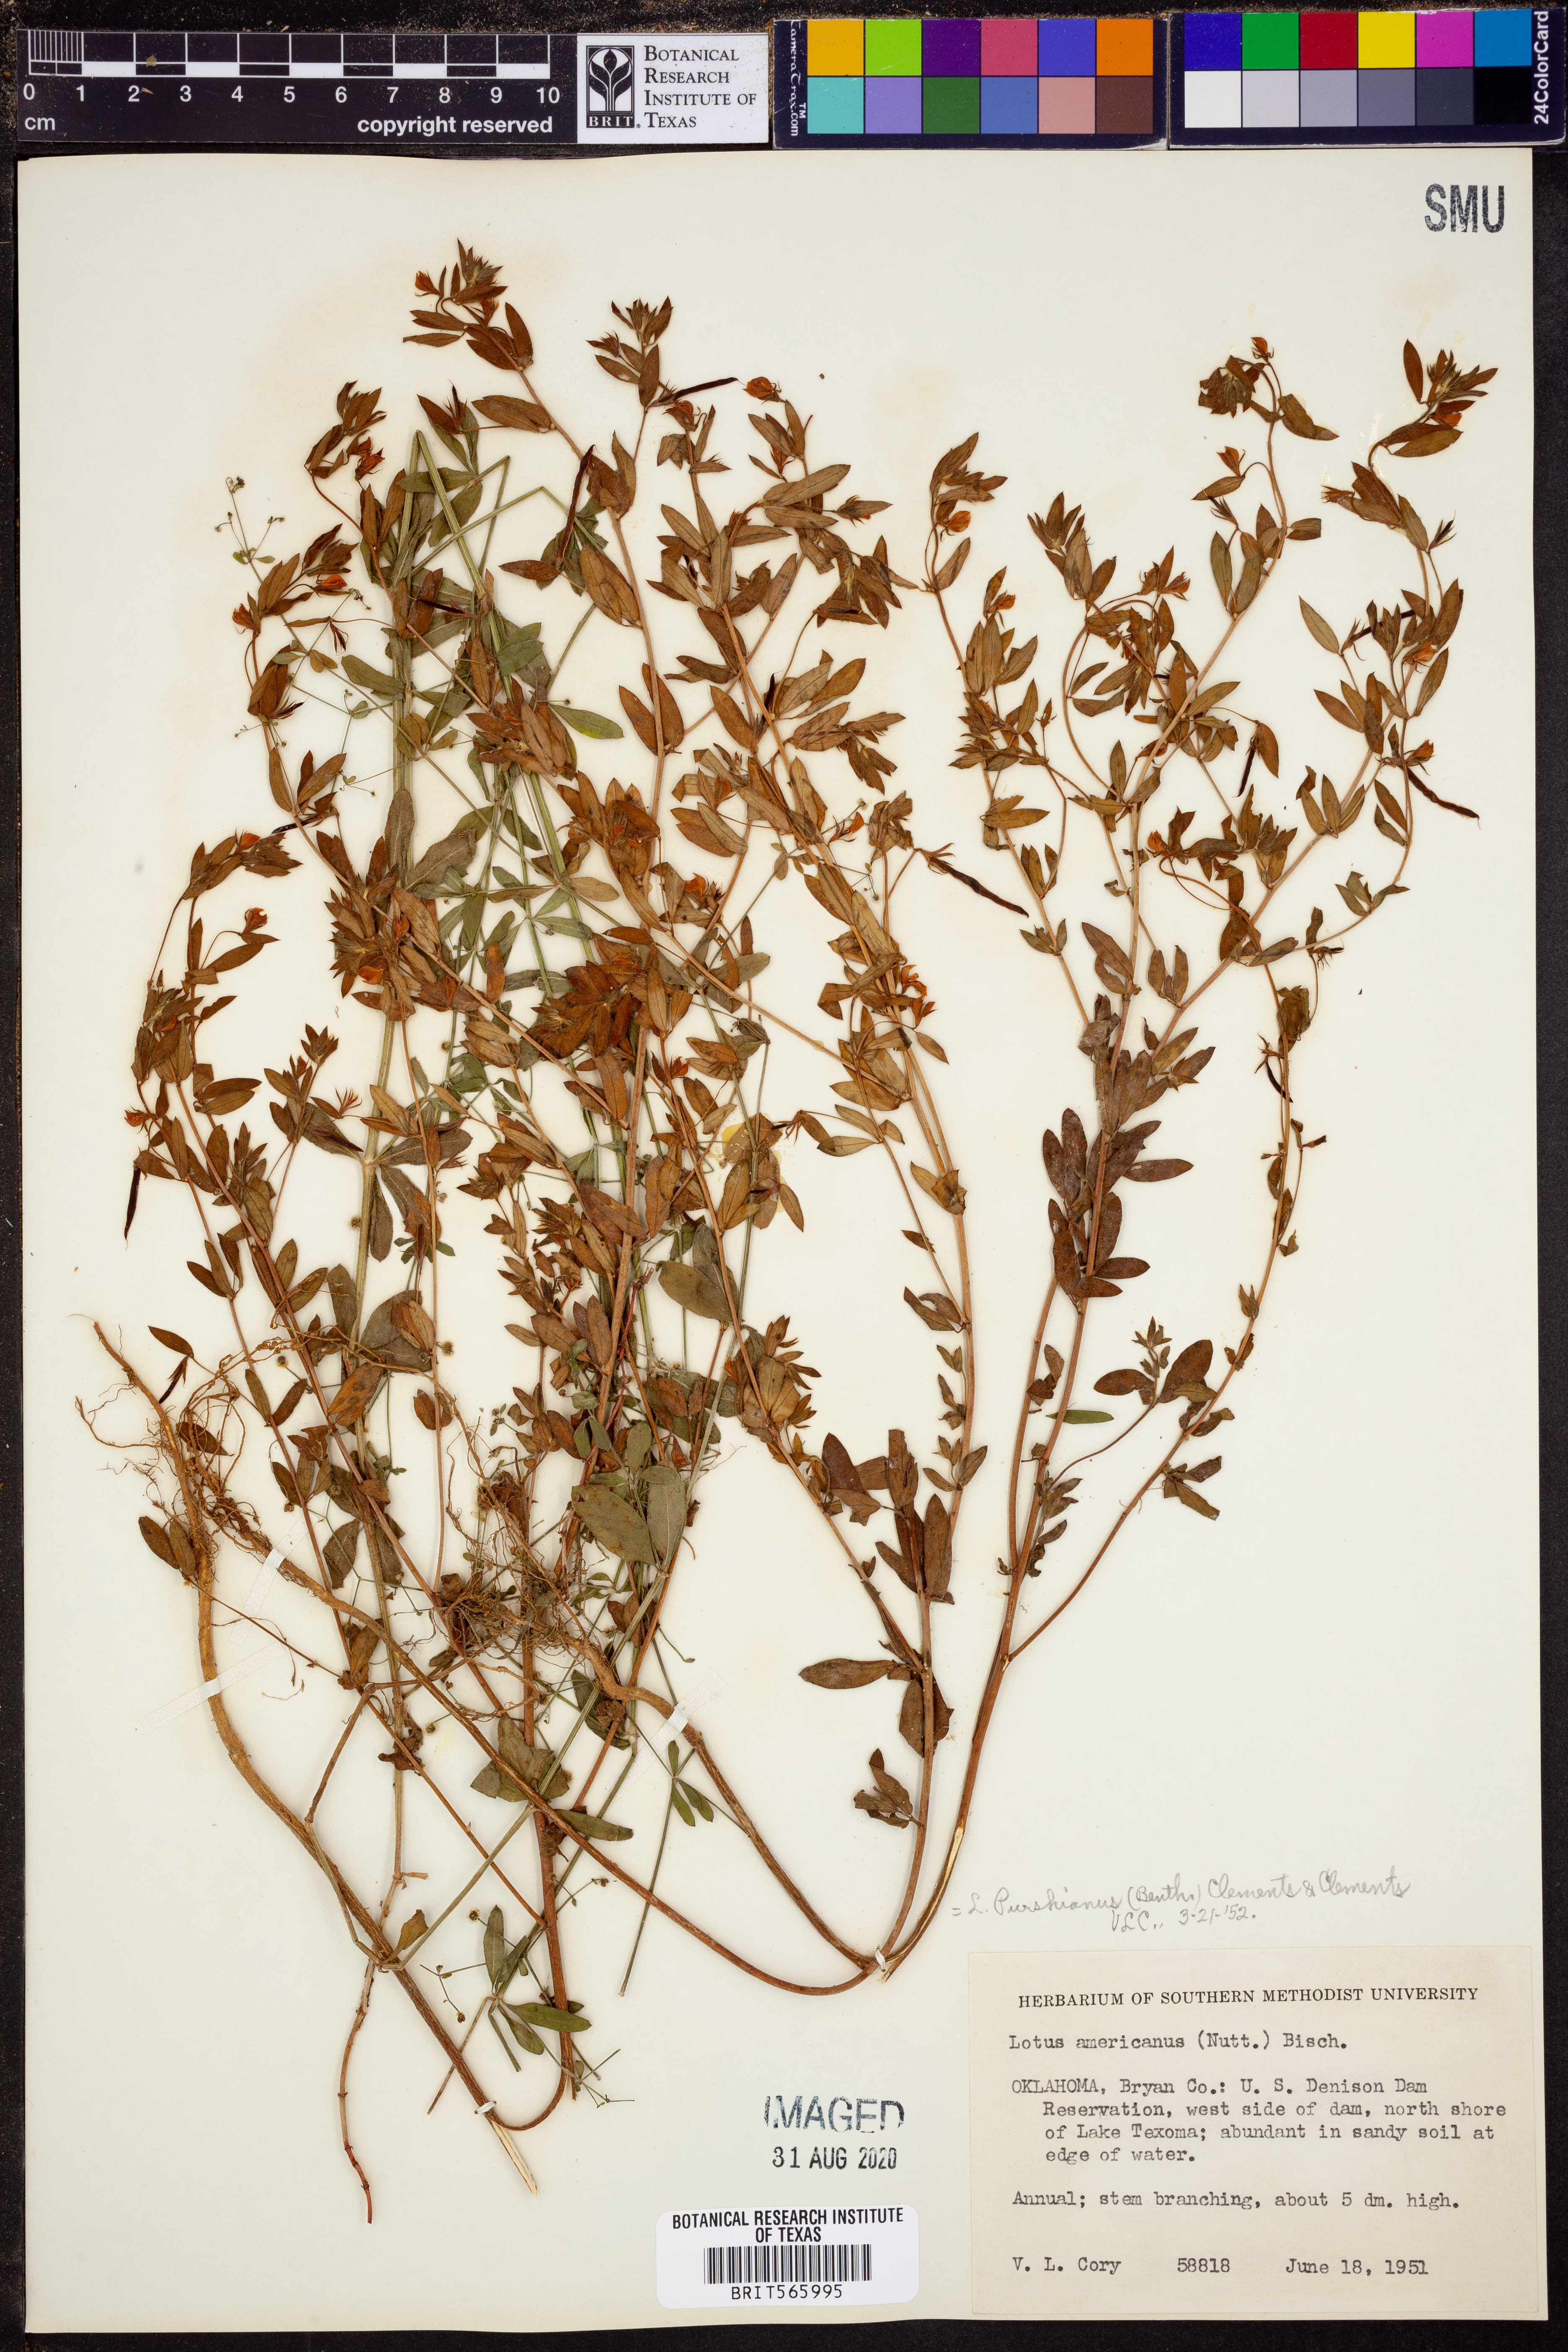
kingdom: Plantae
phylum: Tracheophyta
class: Magnoliopsida
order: Fabales
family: Fabaceae
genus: Acmispon
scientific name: Acmispon americanus
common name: American bird's-foot trefoil
